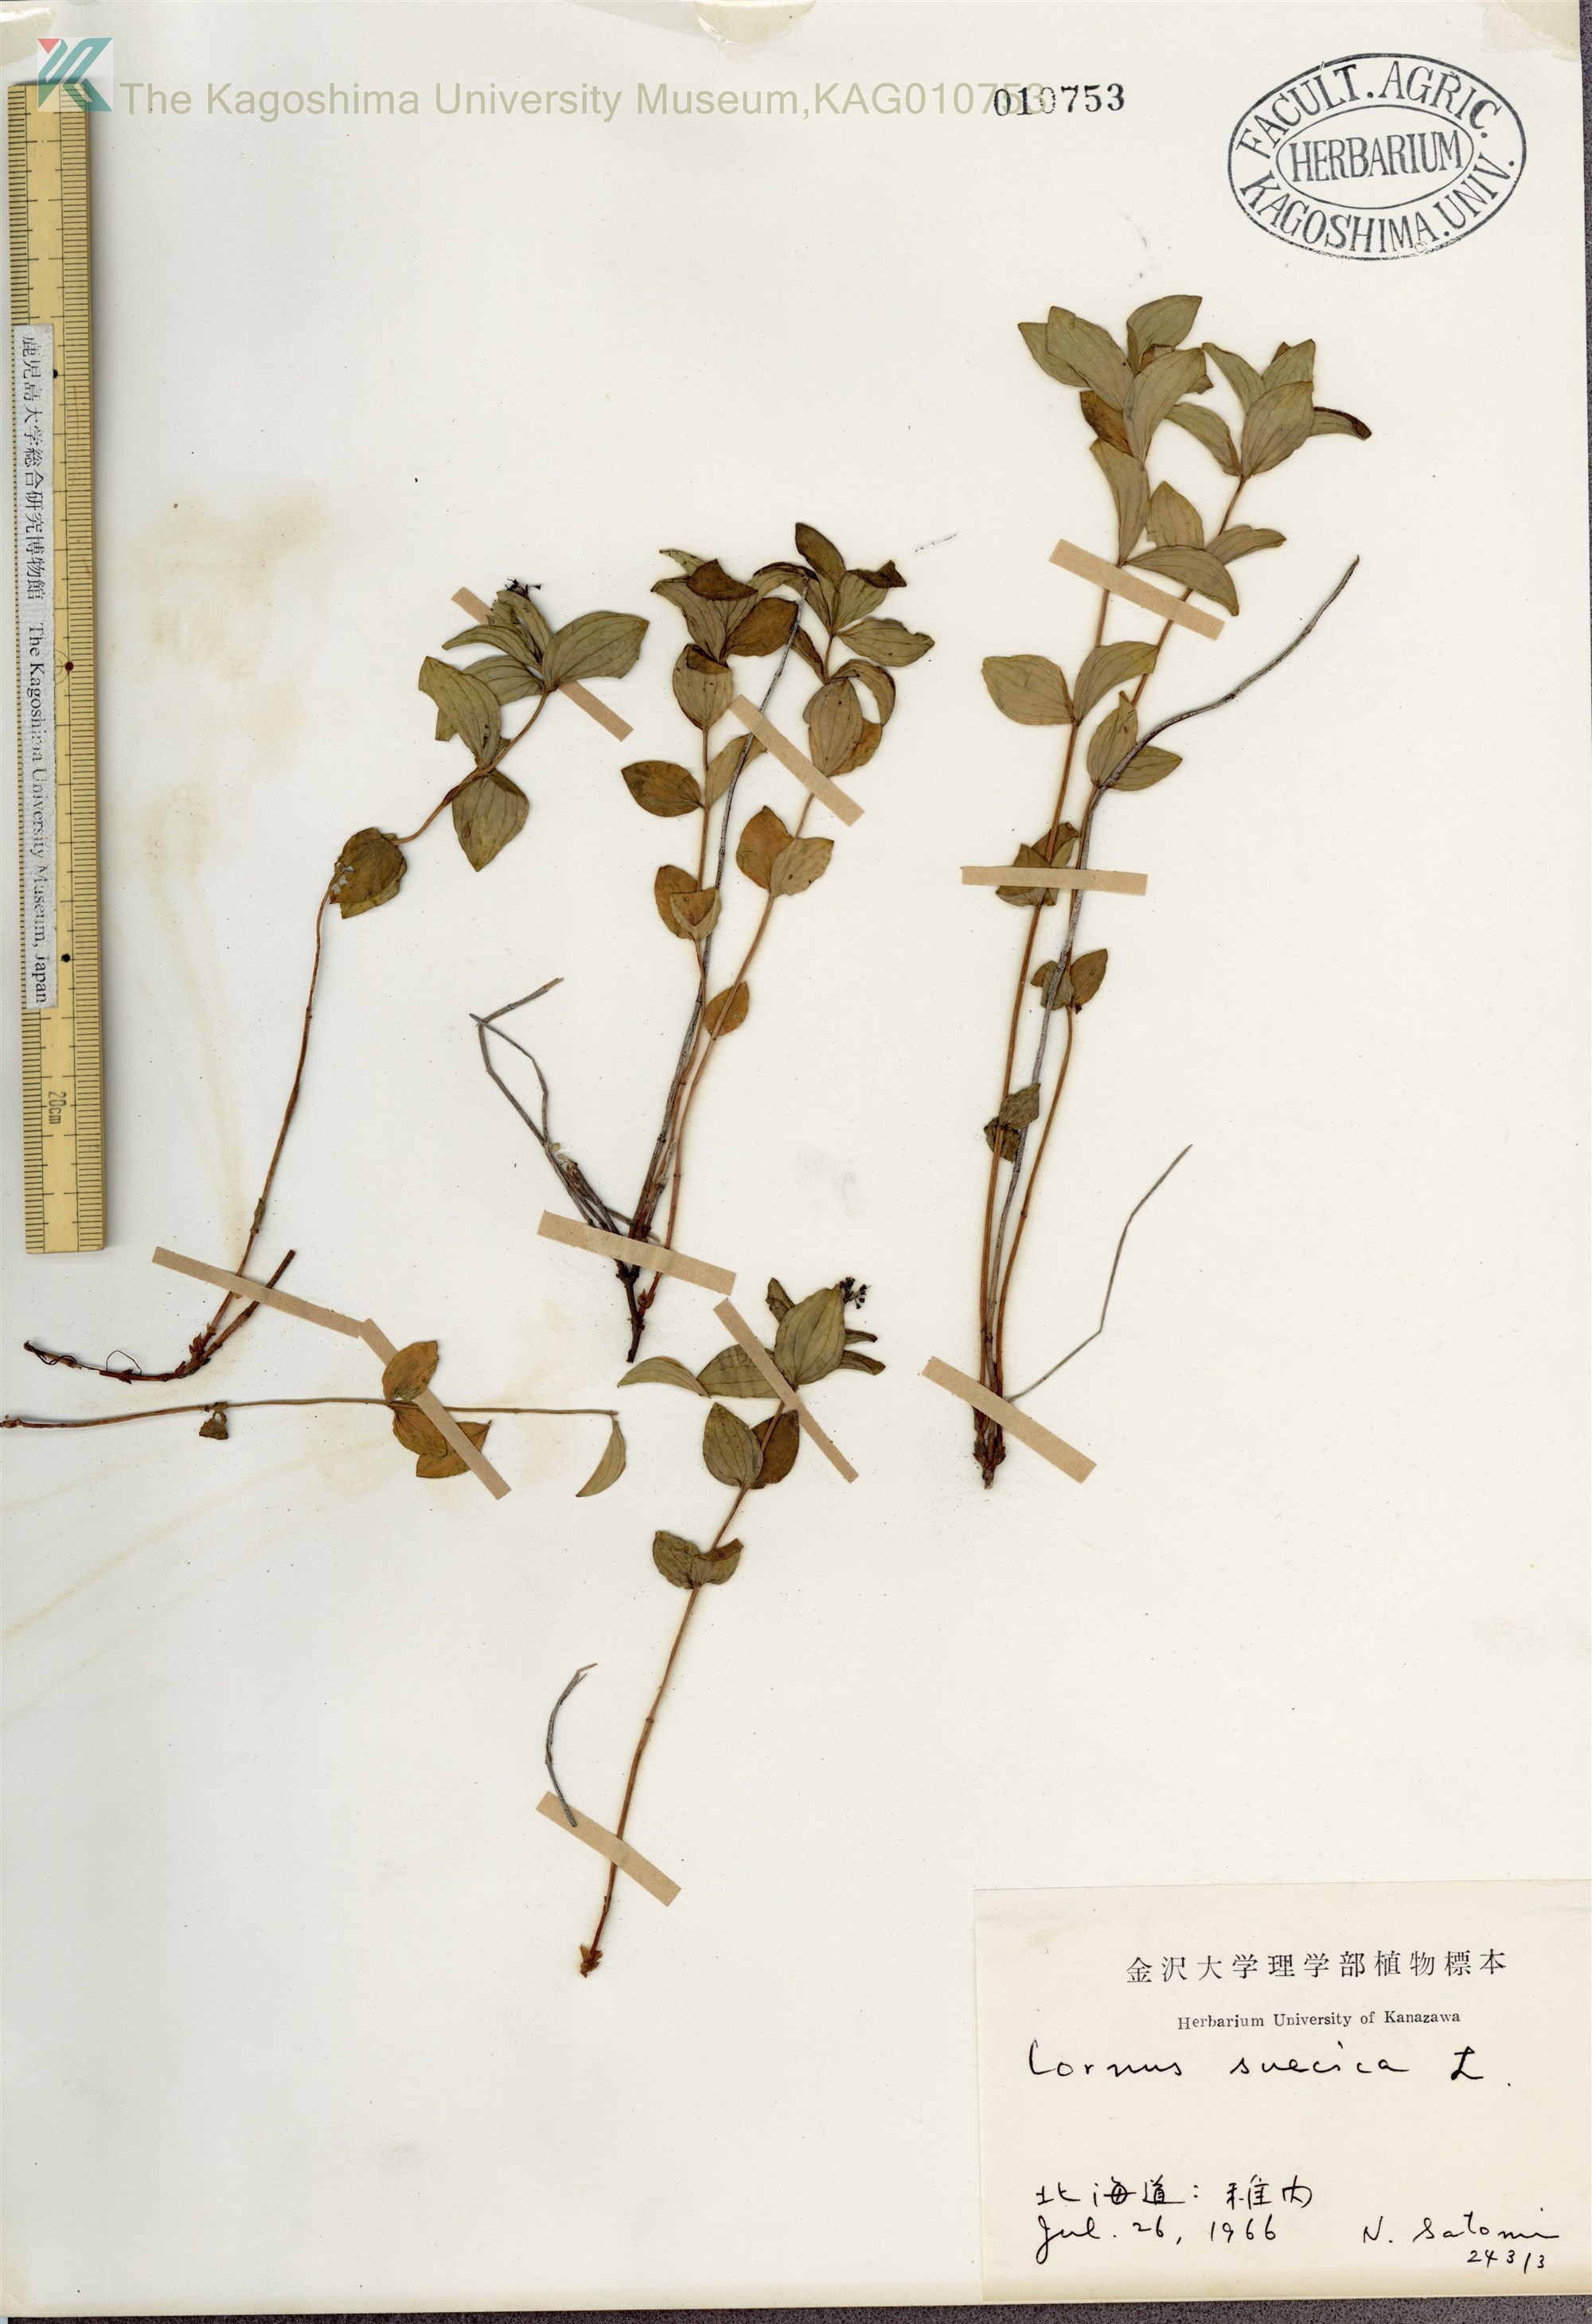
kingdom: Plantae
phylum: Tracheophyta
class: Magnoliopsida
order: Cornales
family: Cornaceae
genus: Cornus
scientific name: Cornus suecica
